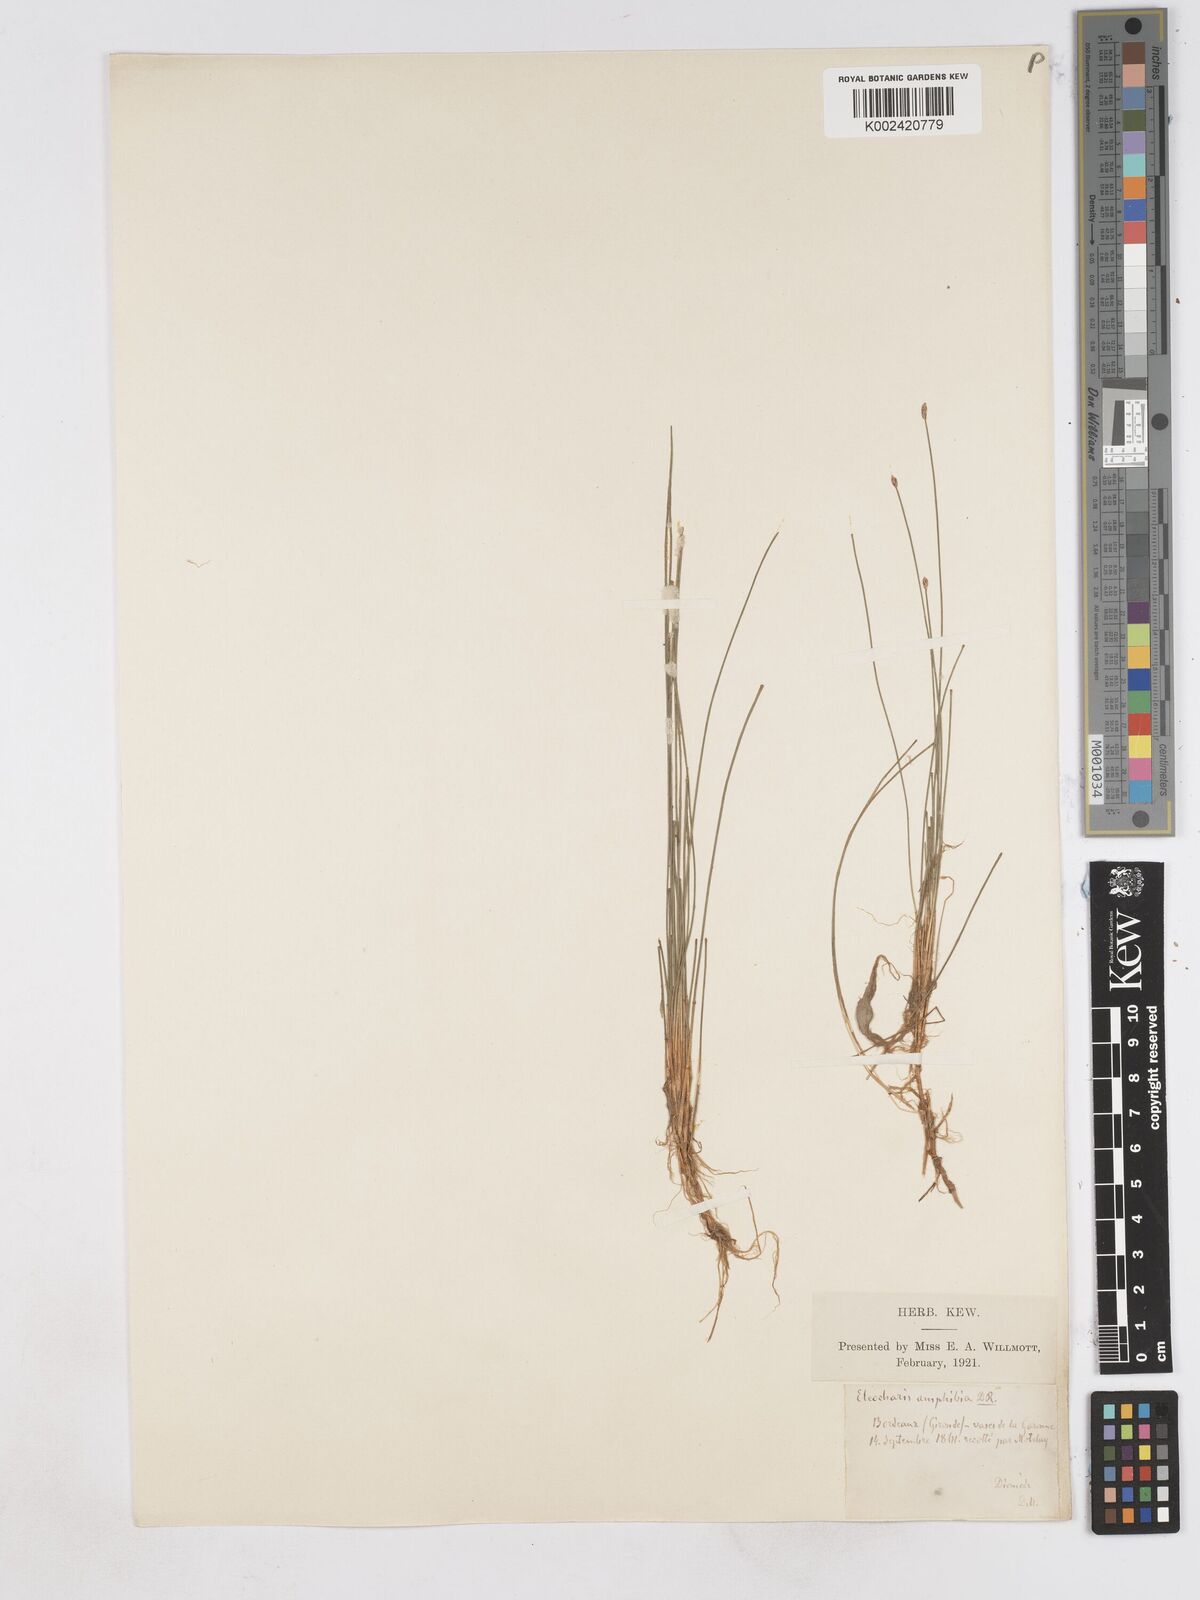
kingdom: Plantae
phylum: Tracheophyta
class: Liliopsida
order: Poales
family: Cyperaceae
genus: Eleocharis
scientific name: Eleocharis bonariensis
